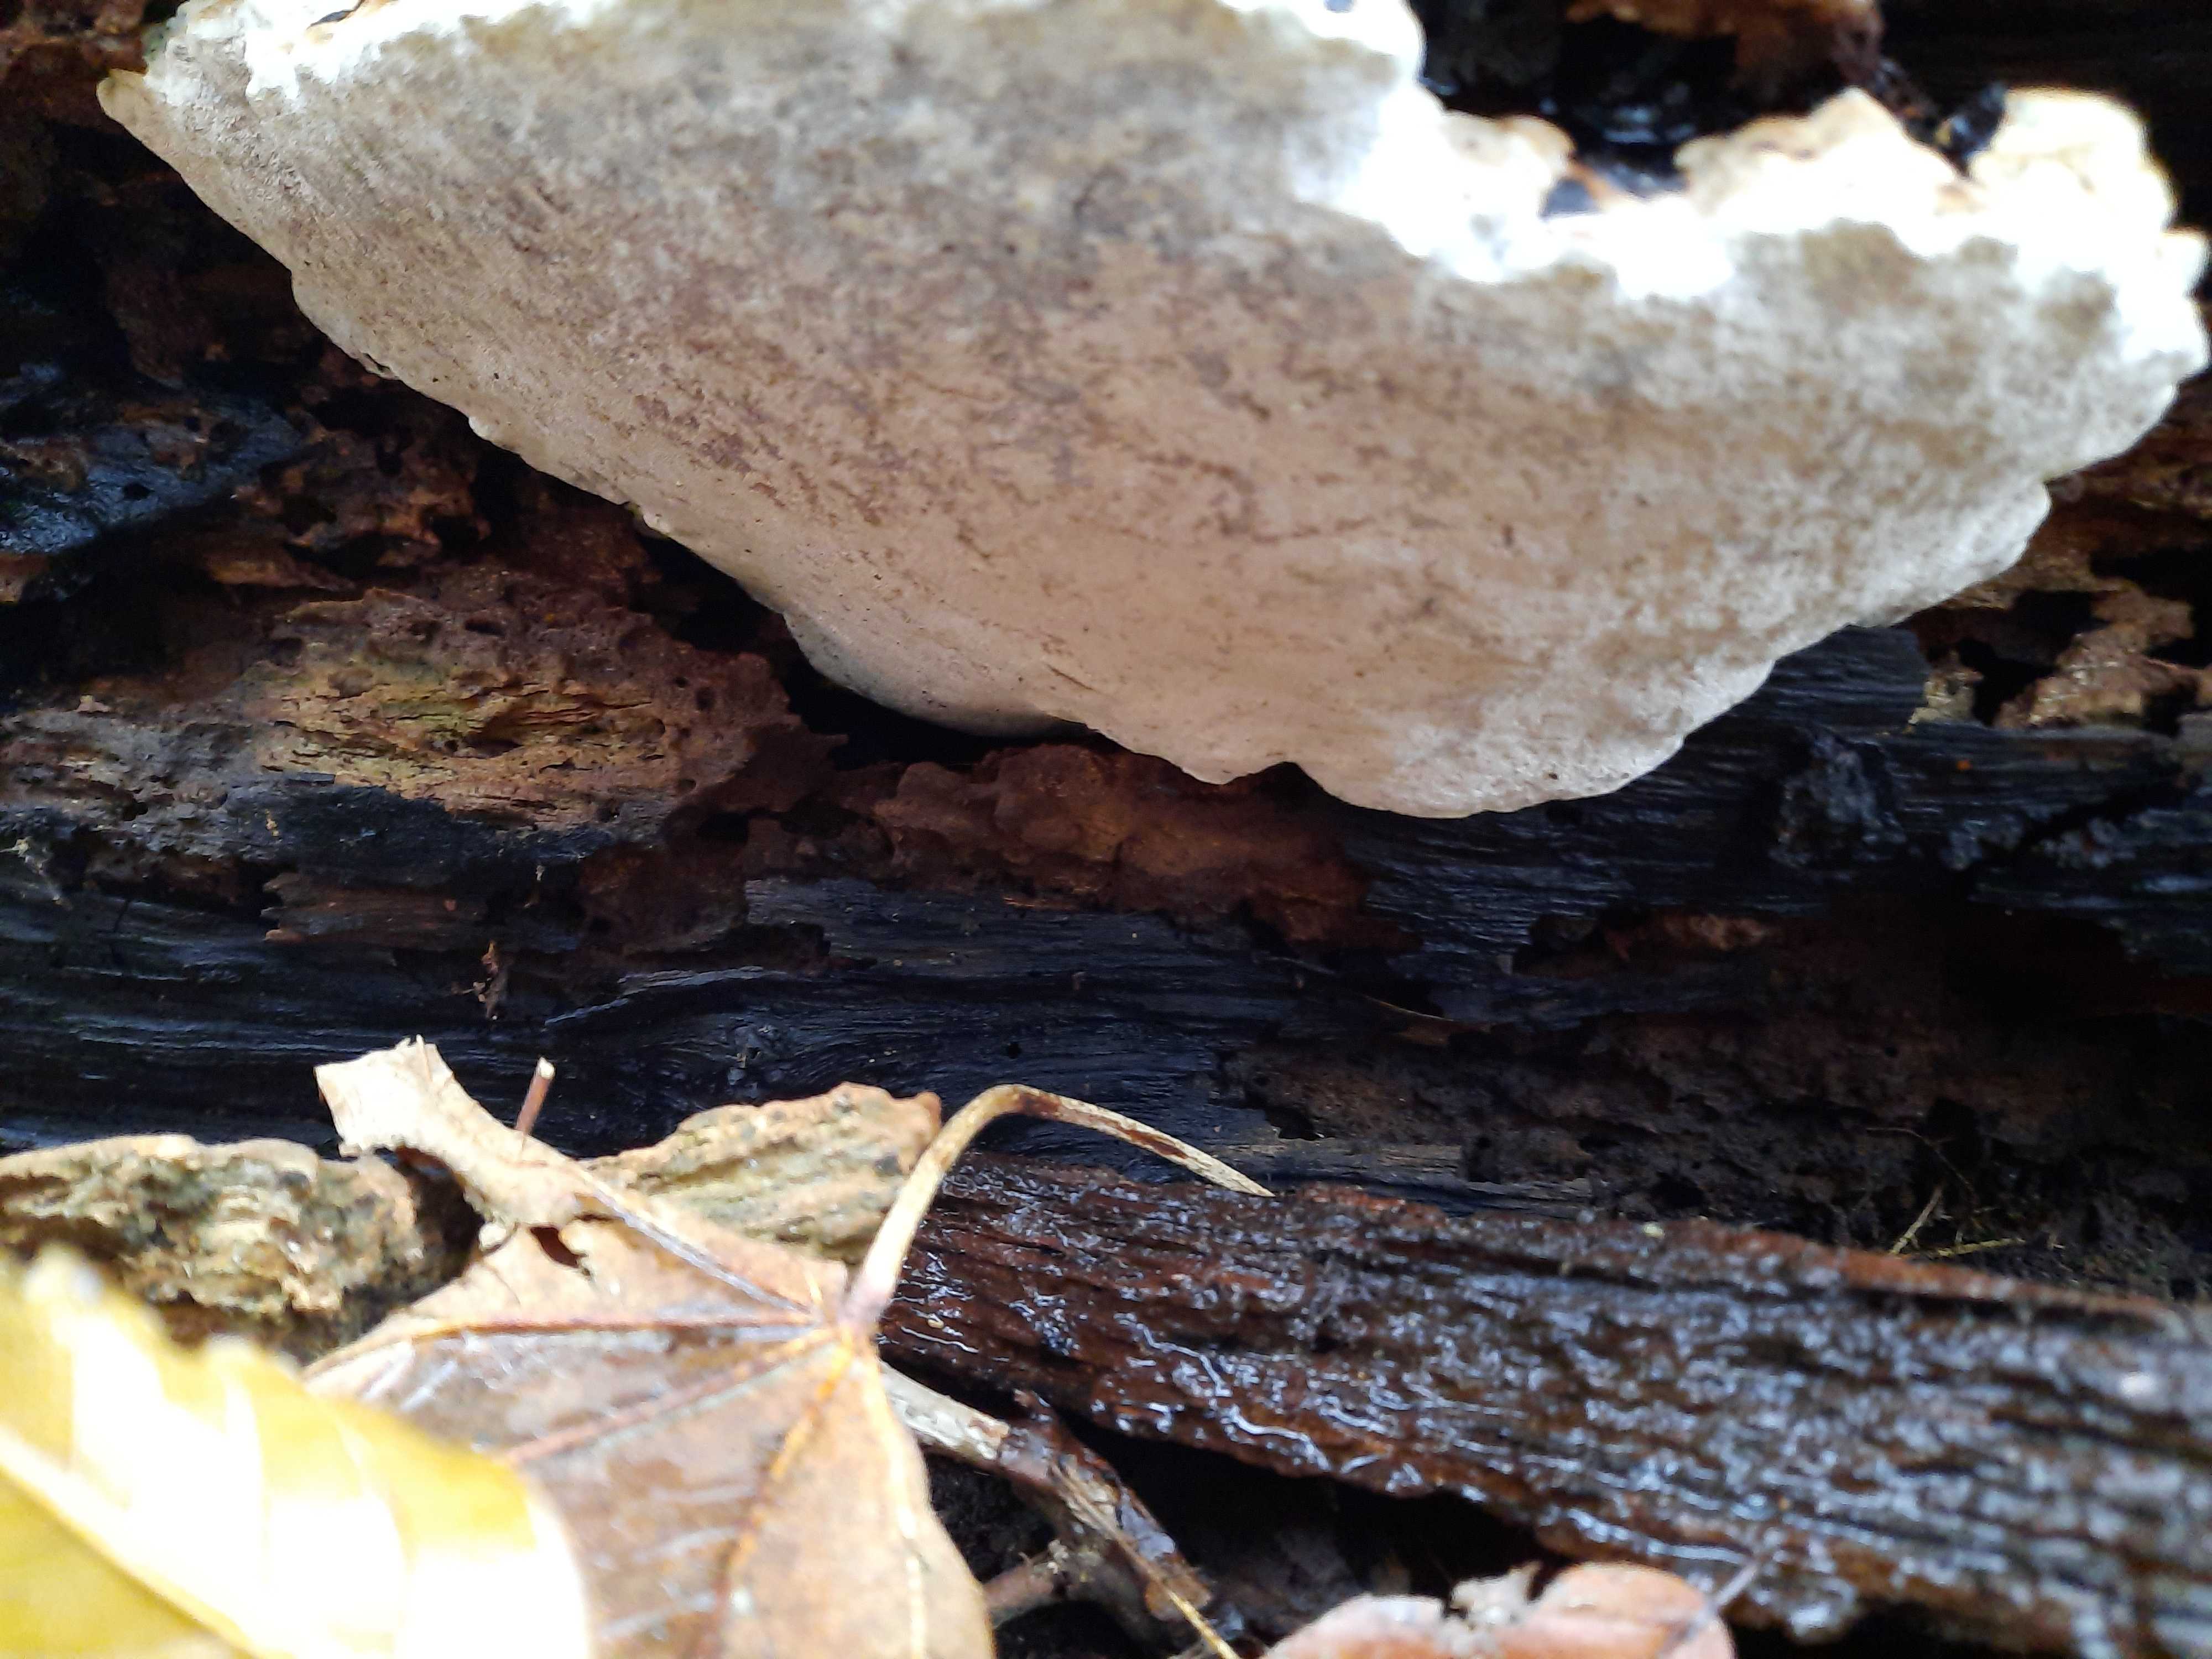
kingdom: Fungi
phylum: Basidiomycota
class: Agaricomycetes
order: Polyporales
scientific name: Polyporales
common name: poresvampordenen
